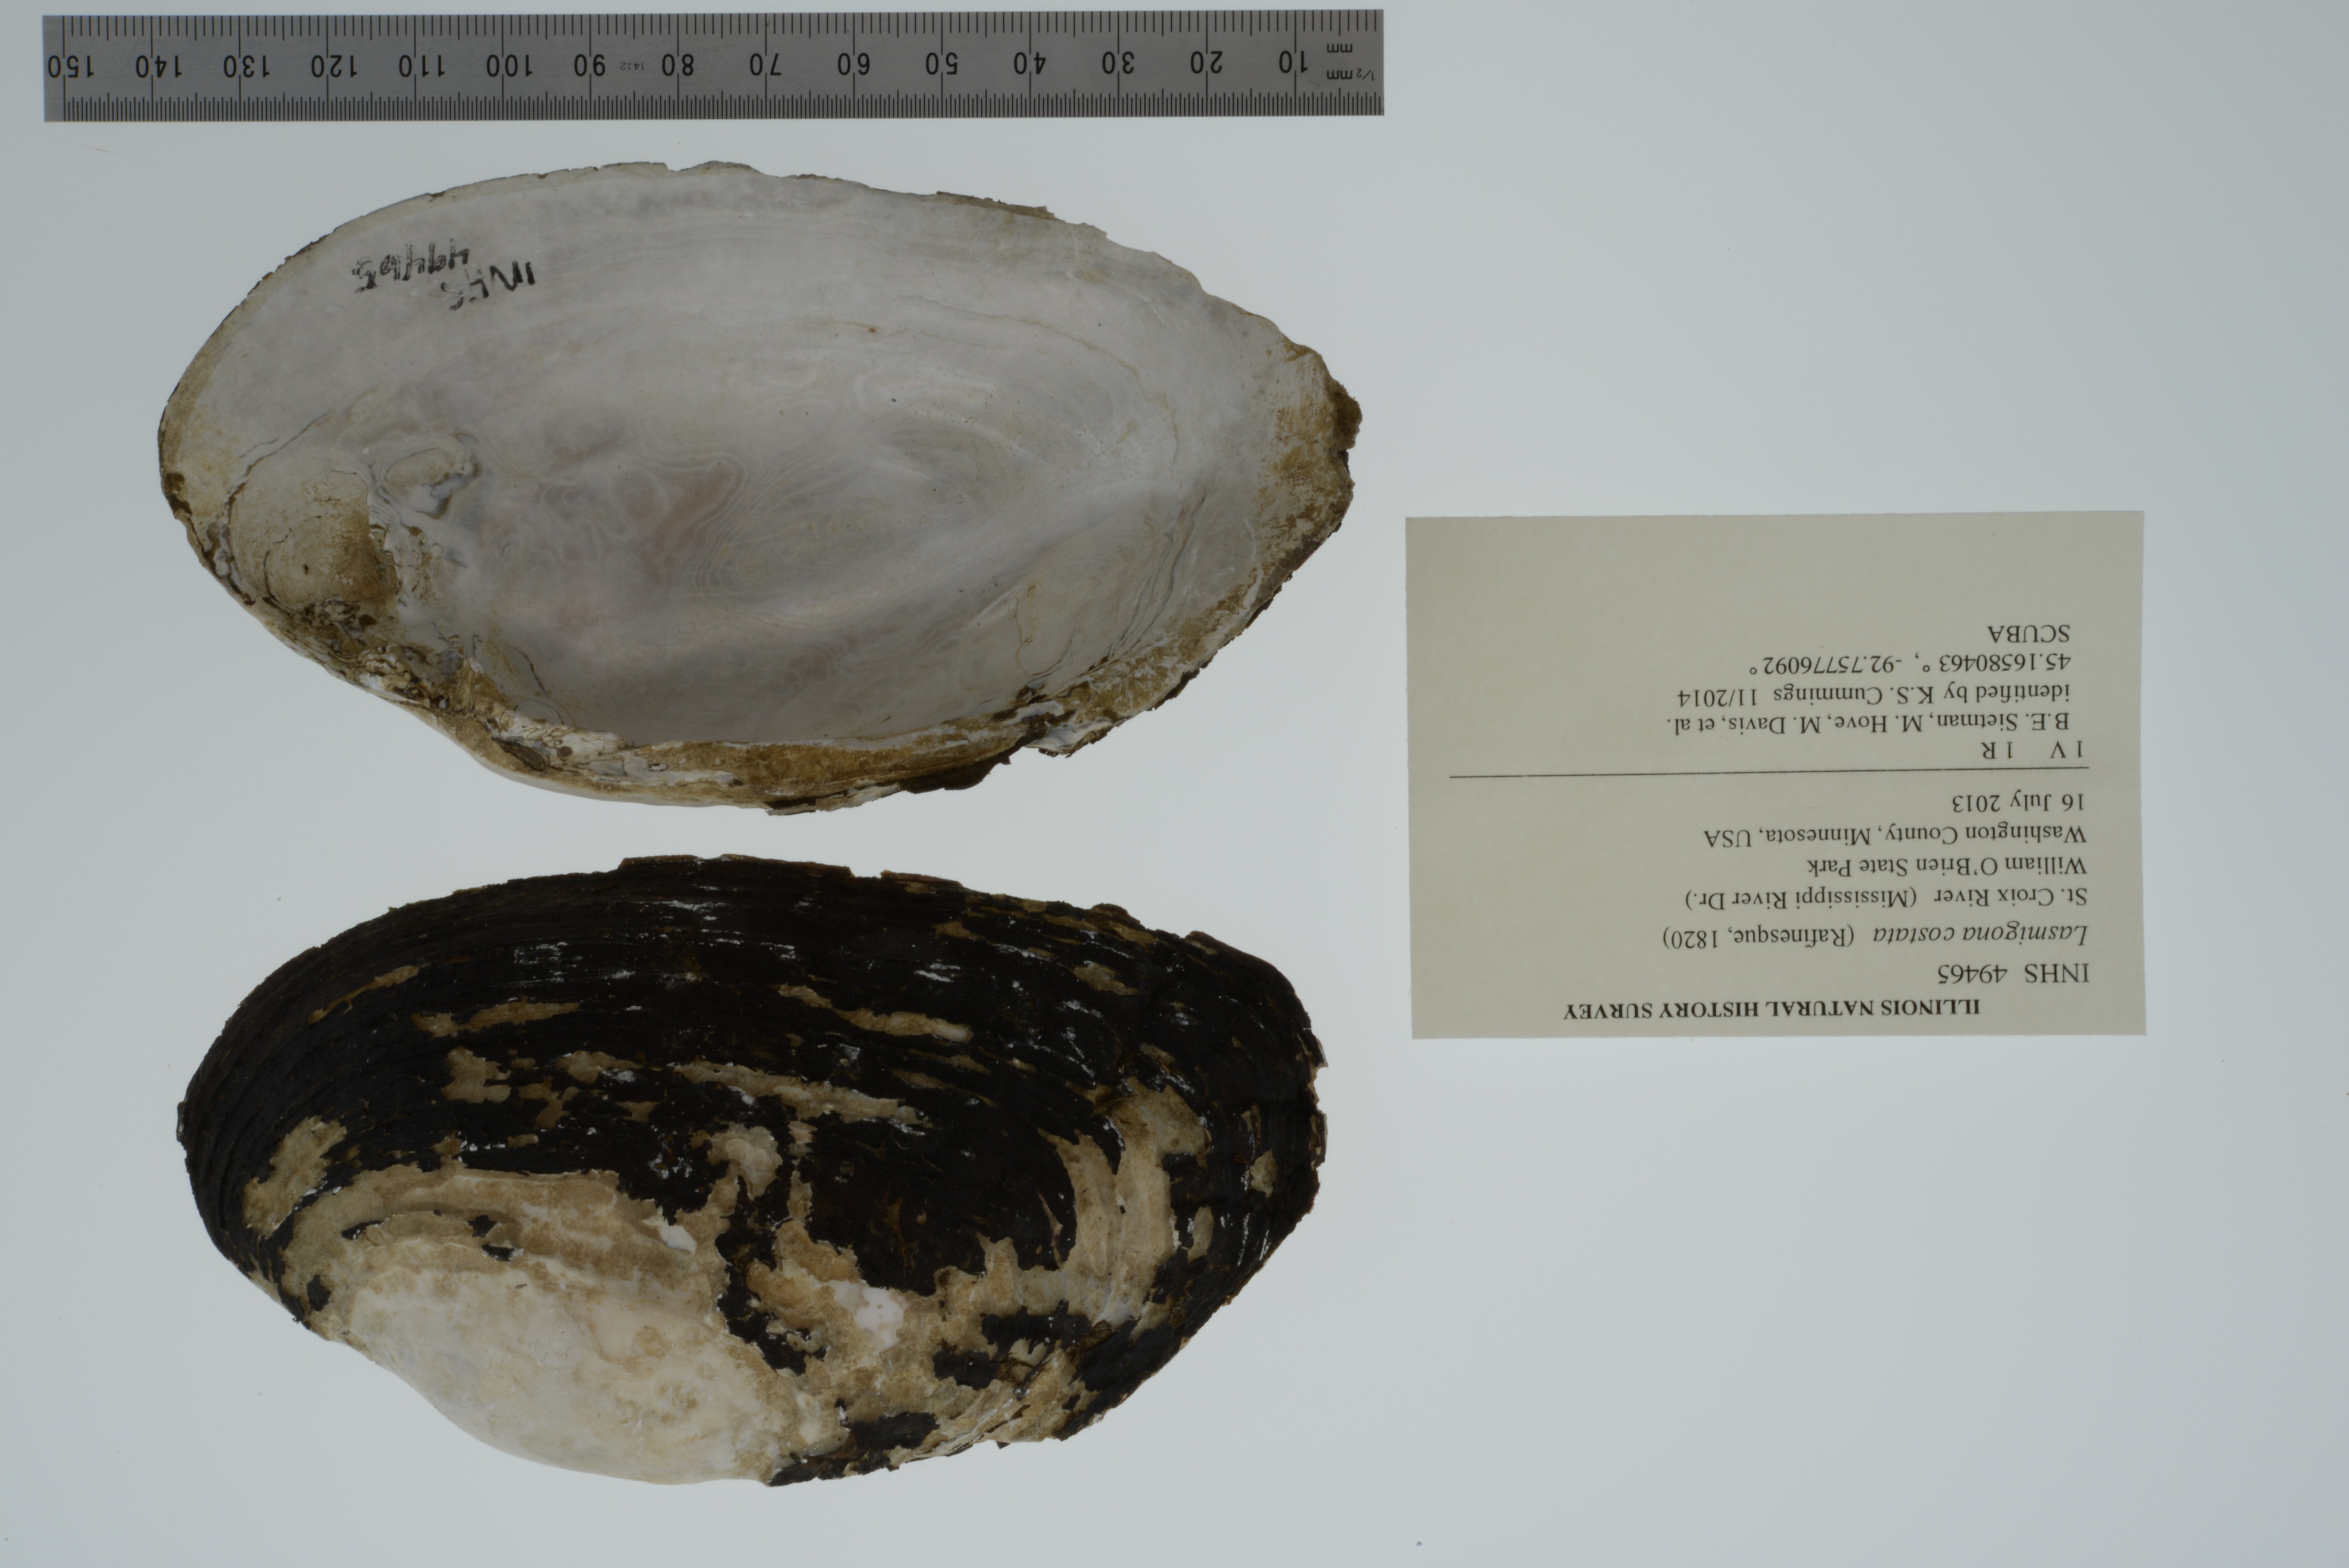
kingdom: Animalia
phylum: Mollusca
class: Bivalvia
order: Unionida
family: Unionidae
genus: Lasmigona
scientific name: Lasmigona costata
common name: Flutedshell
